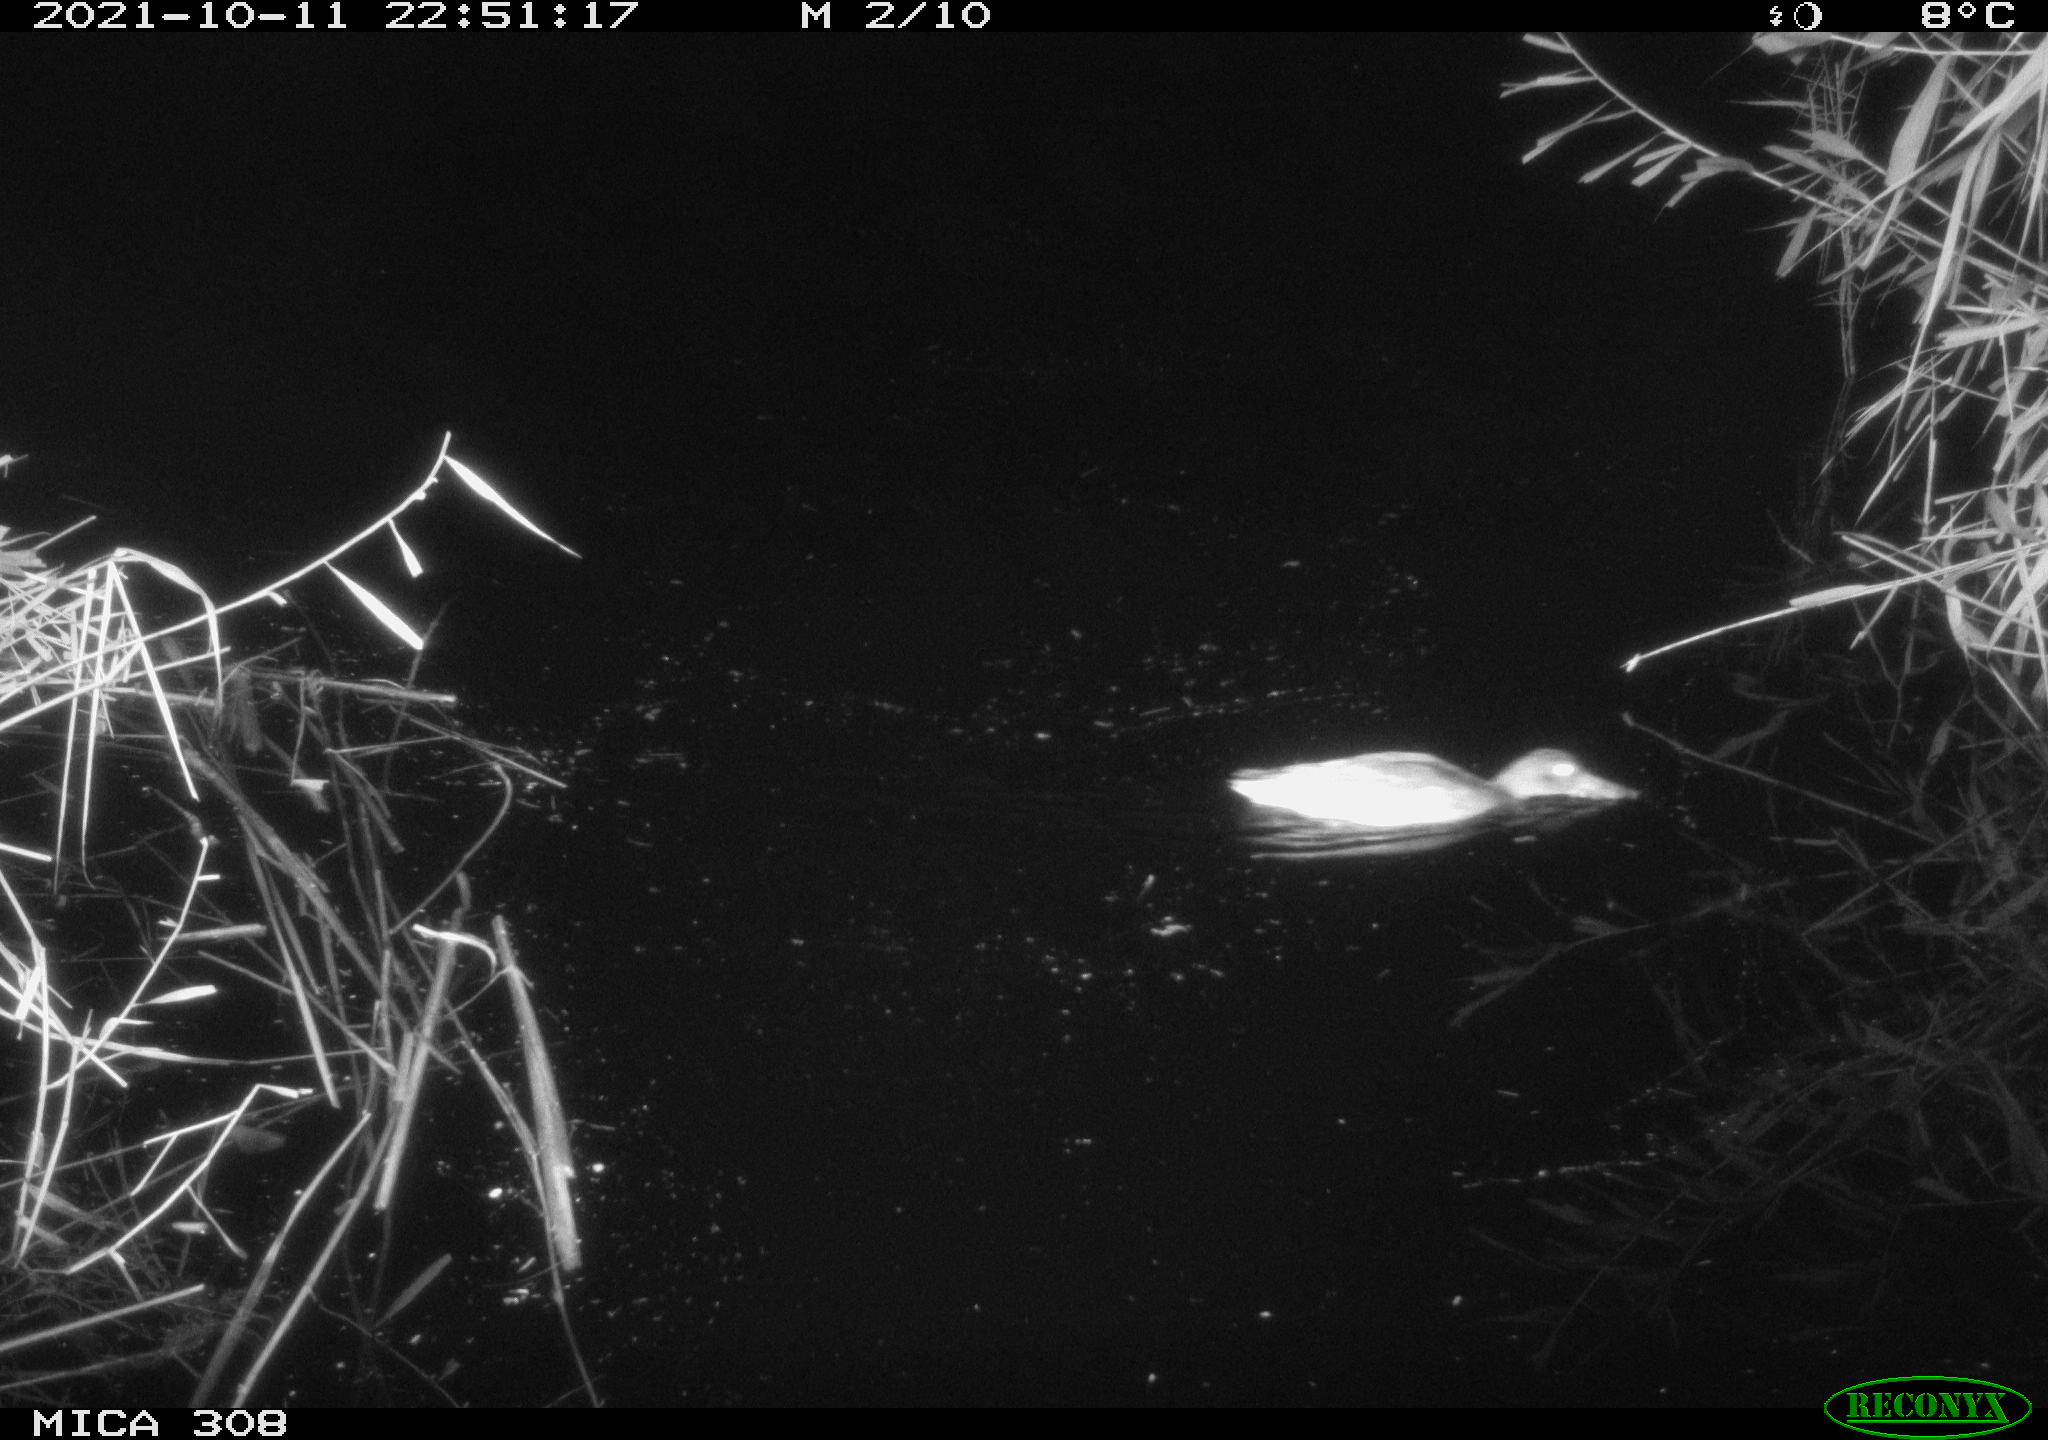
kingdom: Animalia
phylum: Chordata
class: Aves
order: Anseriformes
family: Anatidae
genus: Spatula
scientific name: Spatula clypeata
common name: Northern shoveler
